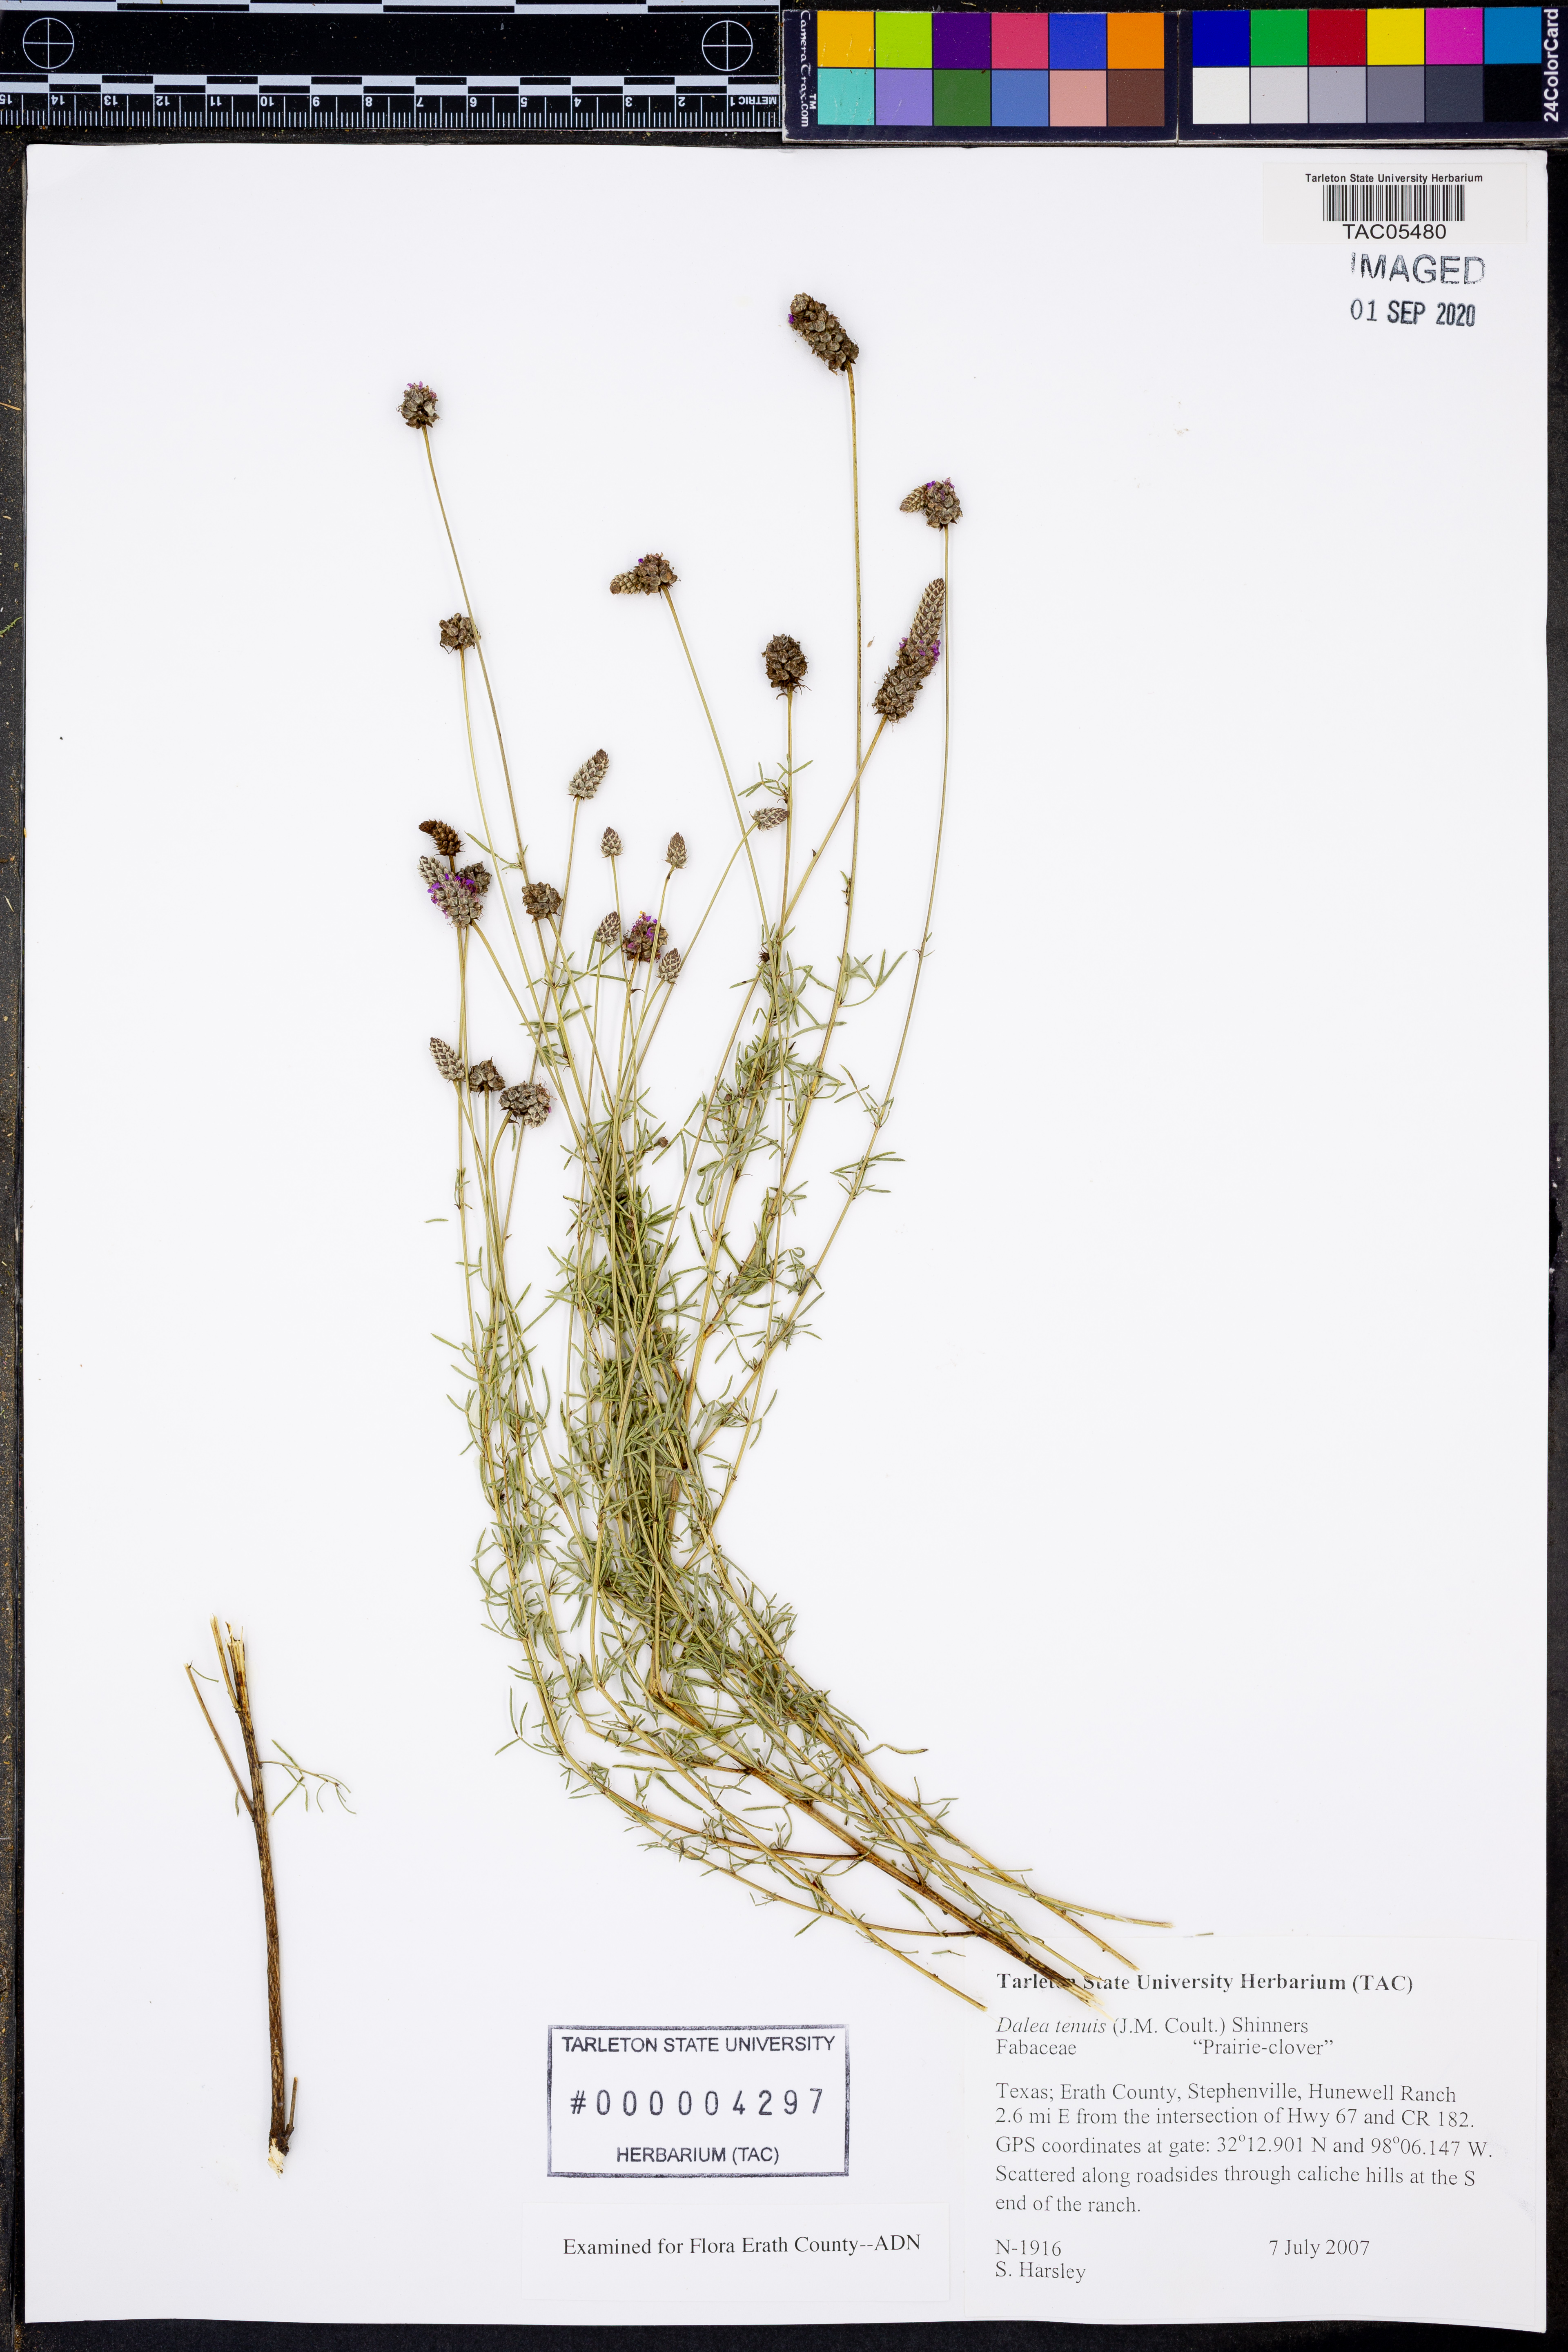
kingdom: Plantae
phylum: Tracheophyta
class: Magnoliopsida
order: Fabales
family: Fabaceae
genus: Dalea
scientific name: Dalea tenuis
